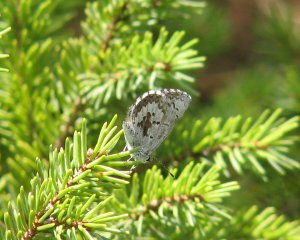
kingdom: Animalia
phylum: Arthropoda
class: Insecta
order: Lepidoptera
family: Lycaenidae
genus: Celastrina
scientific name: Celastrina ladon
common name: Spring Azure
